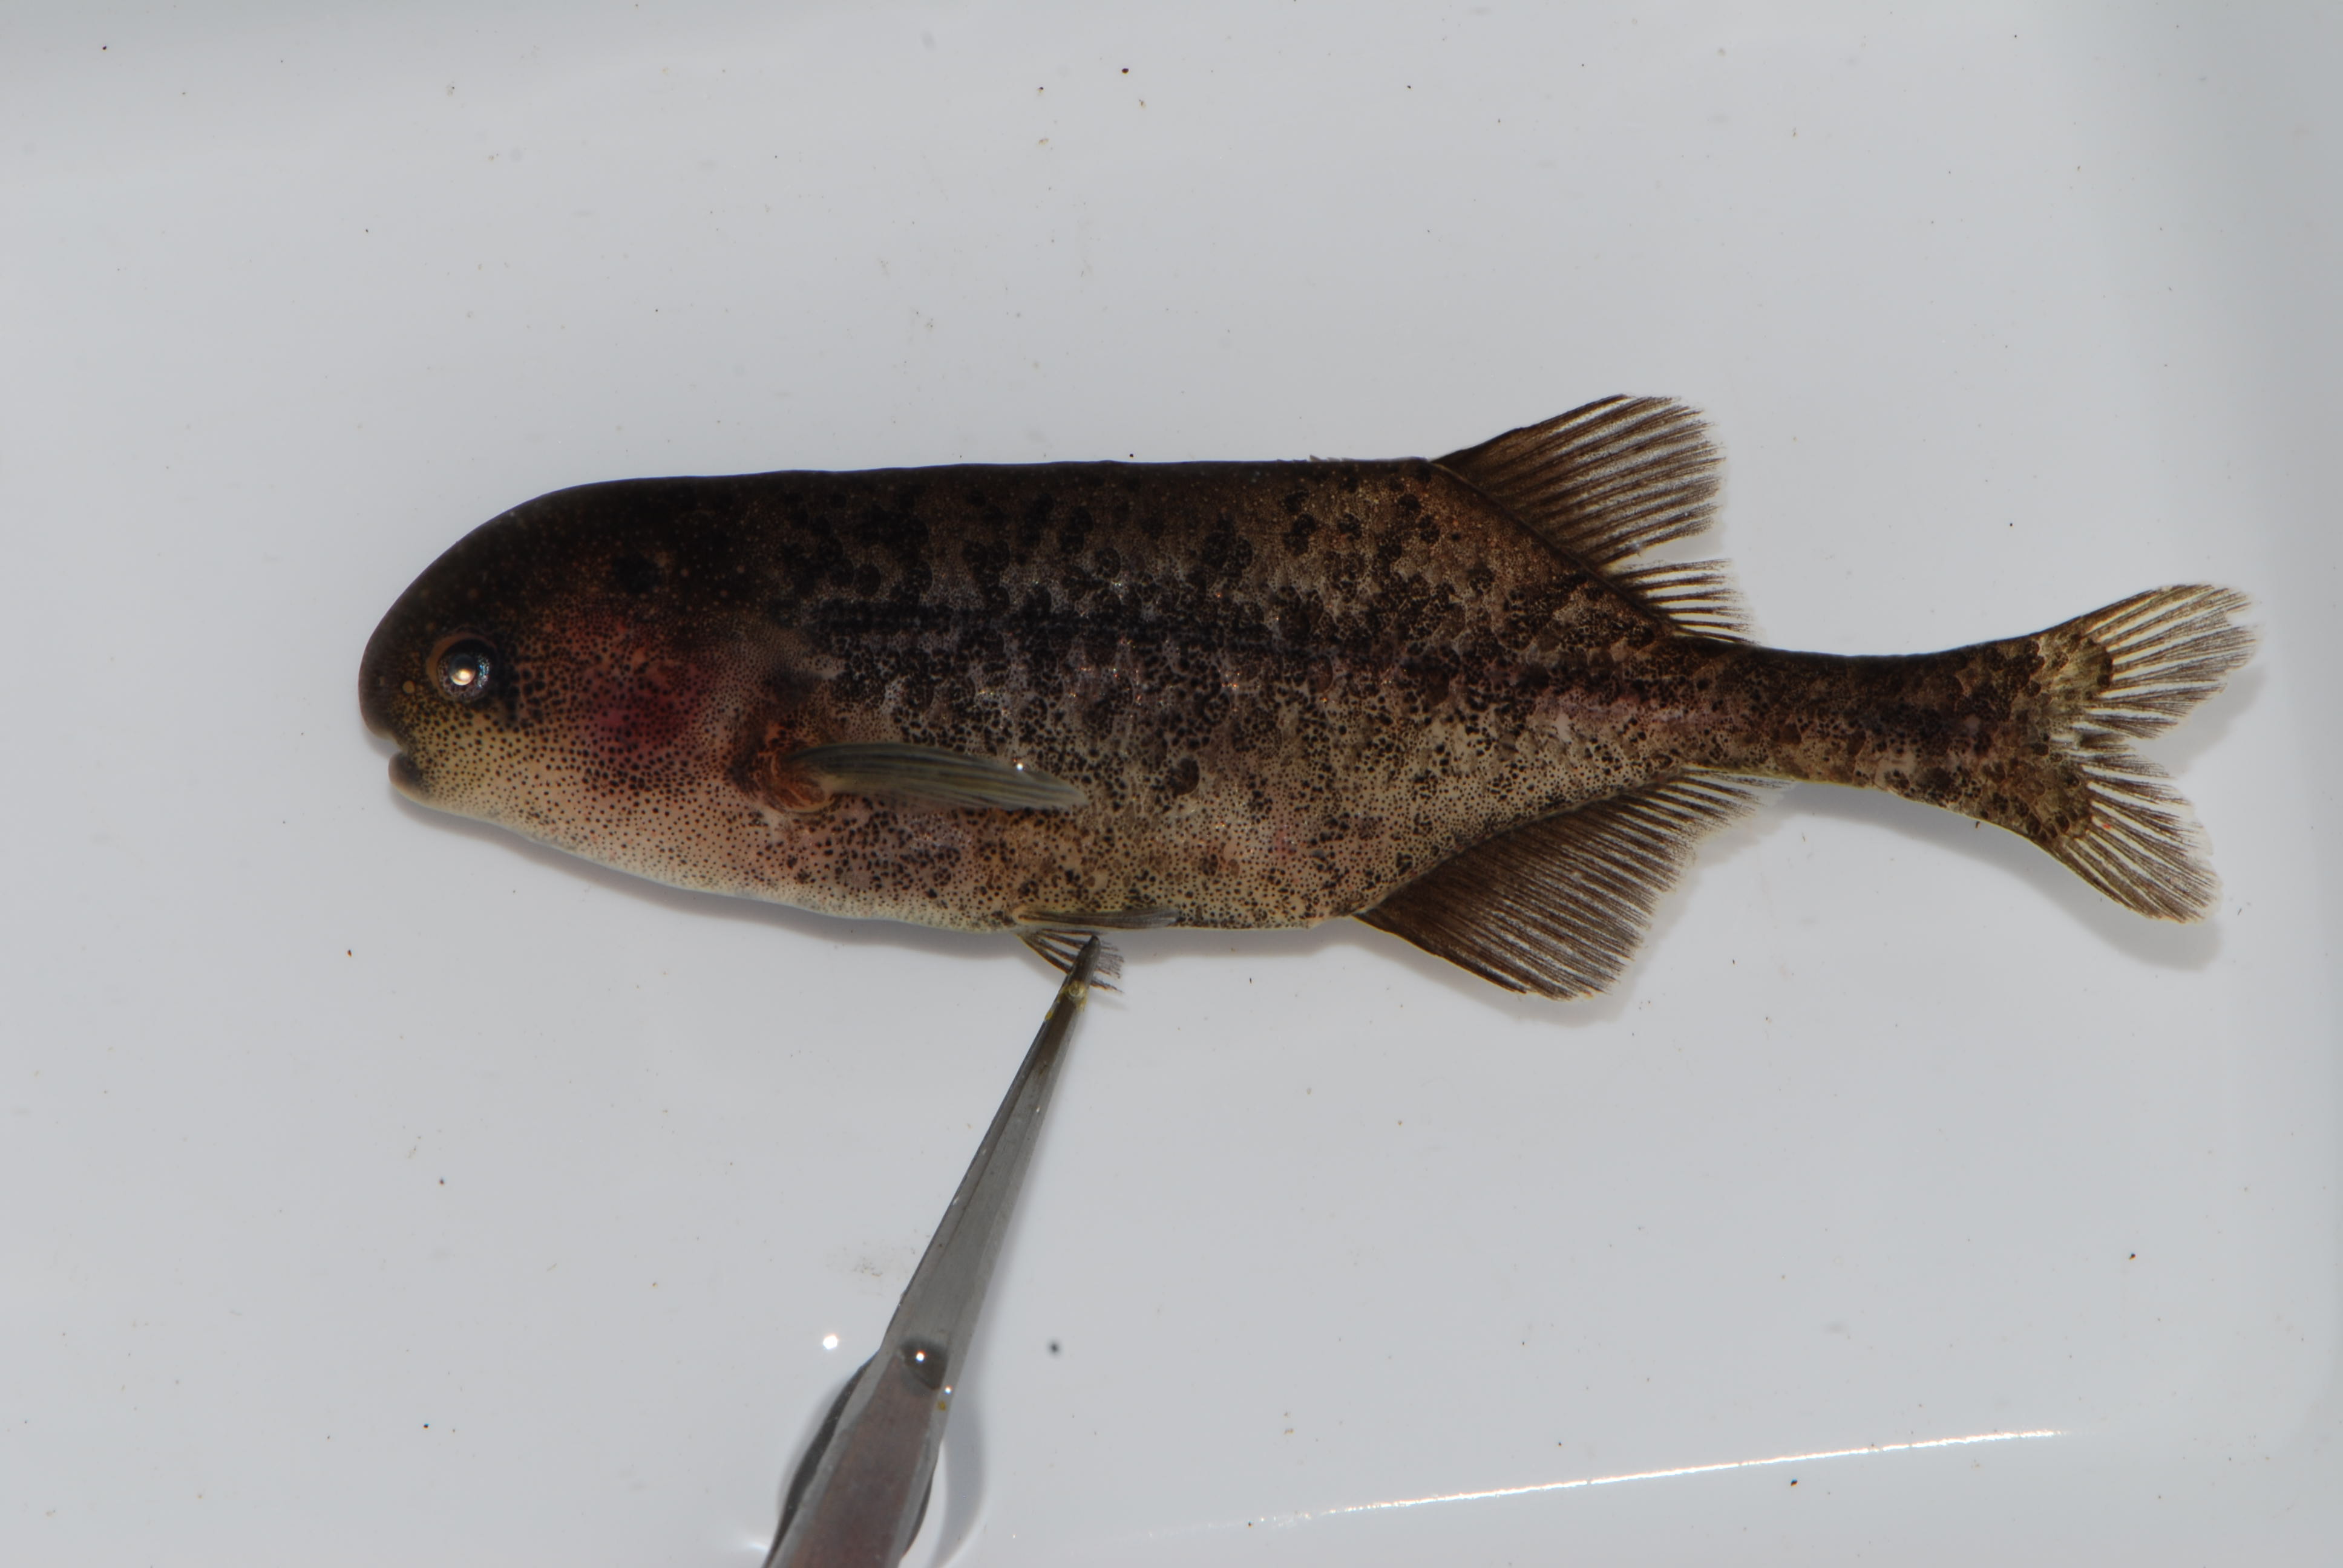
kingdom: Animalia
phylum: Chordata
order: Osteoglossiformes
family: Mormyridae
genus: Pollimyrus
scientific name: Pollimyrus
